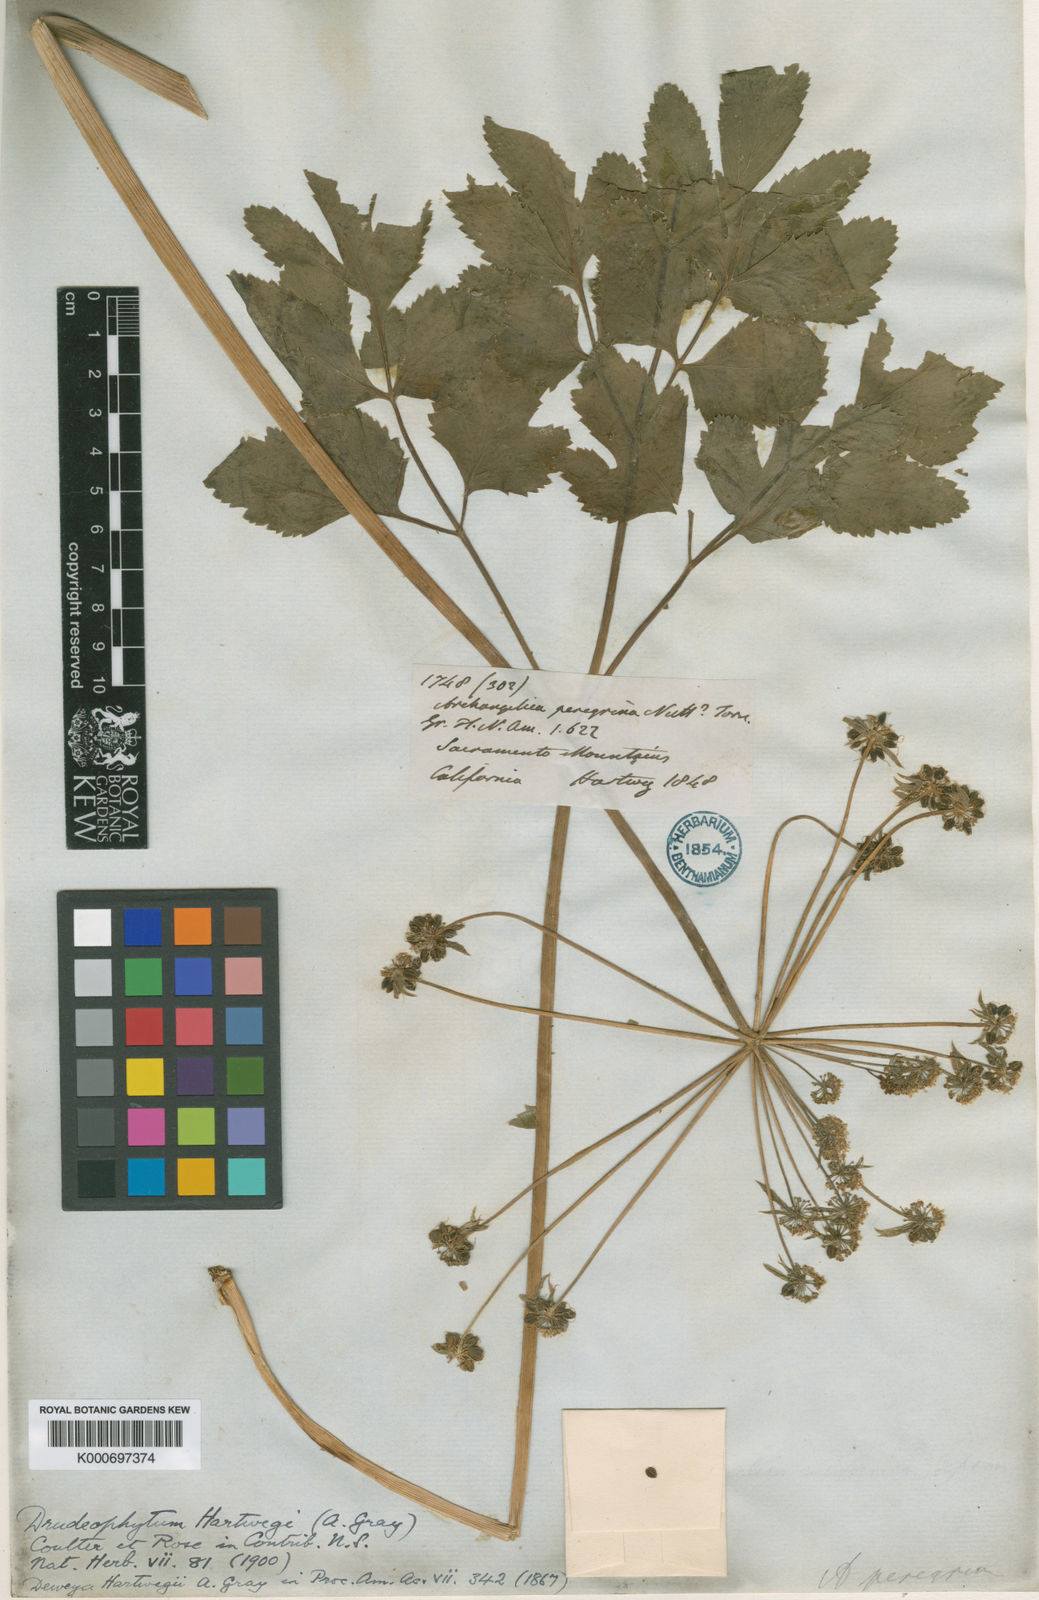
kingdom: Plantae
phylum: Tracheophyta
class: Magnoliopsida
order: Apiales
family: Apiaceae
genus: Tauschia
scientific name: Tauschia hartwegii
